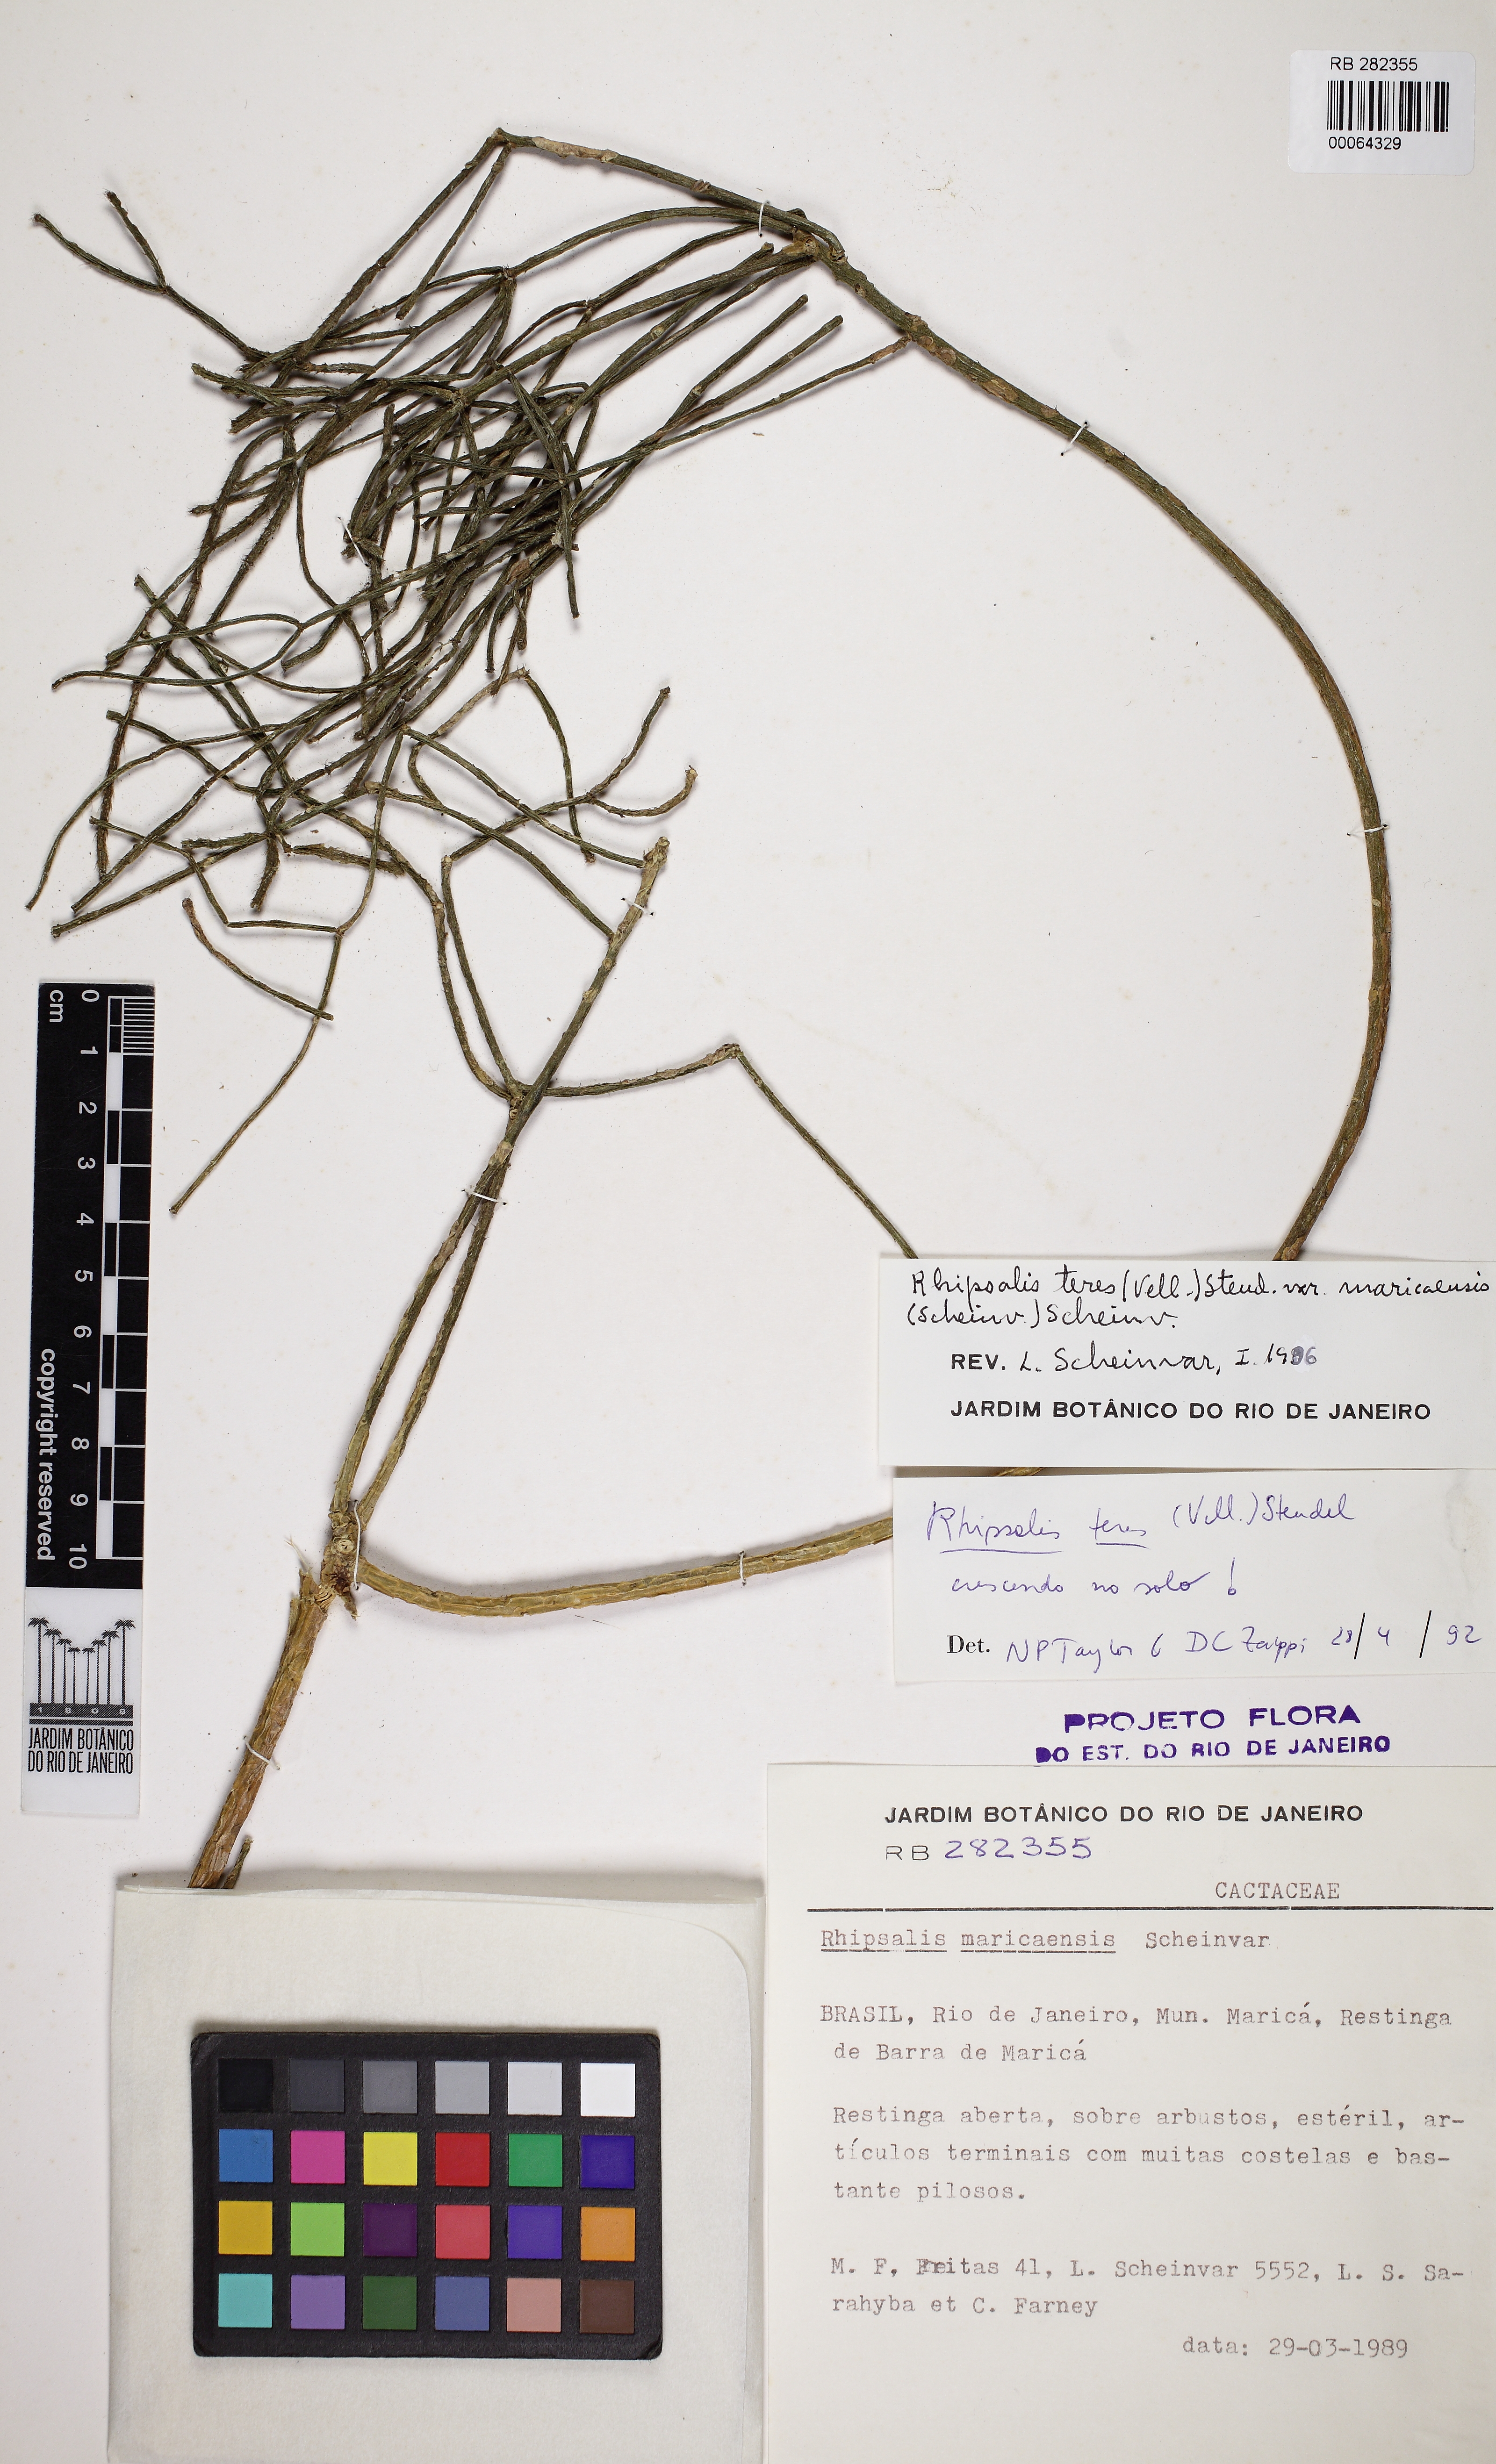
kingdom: Plantae
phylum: Tracheophyta
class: Magnoliopsida
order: Caryophyllales
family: Cactaceae
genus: Rhipsalis
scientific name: Rhipsalis teres
